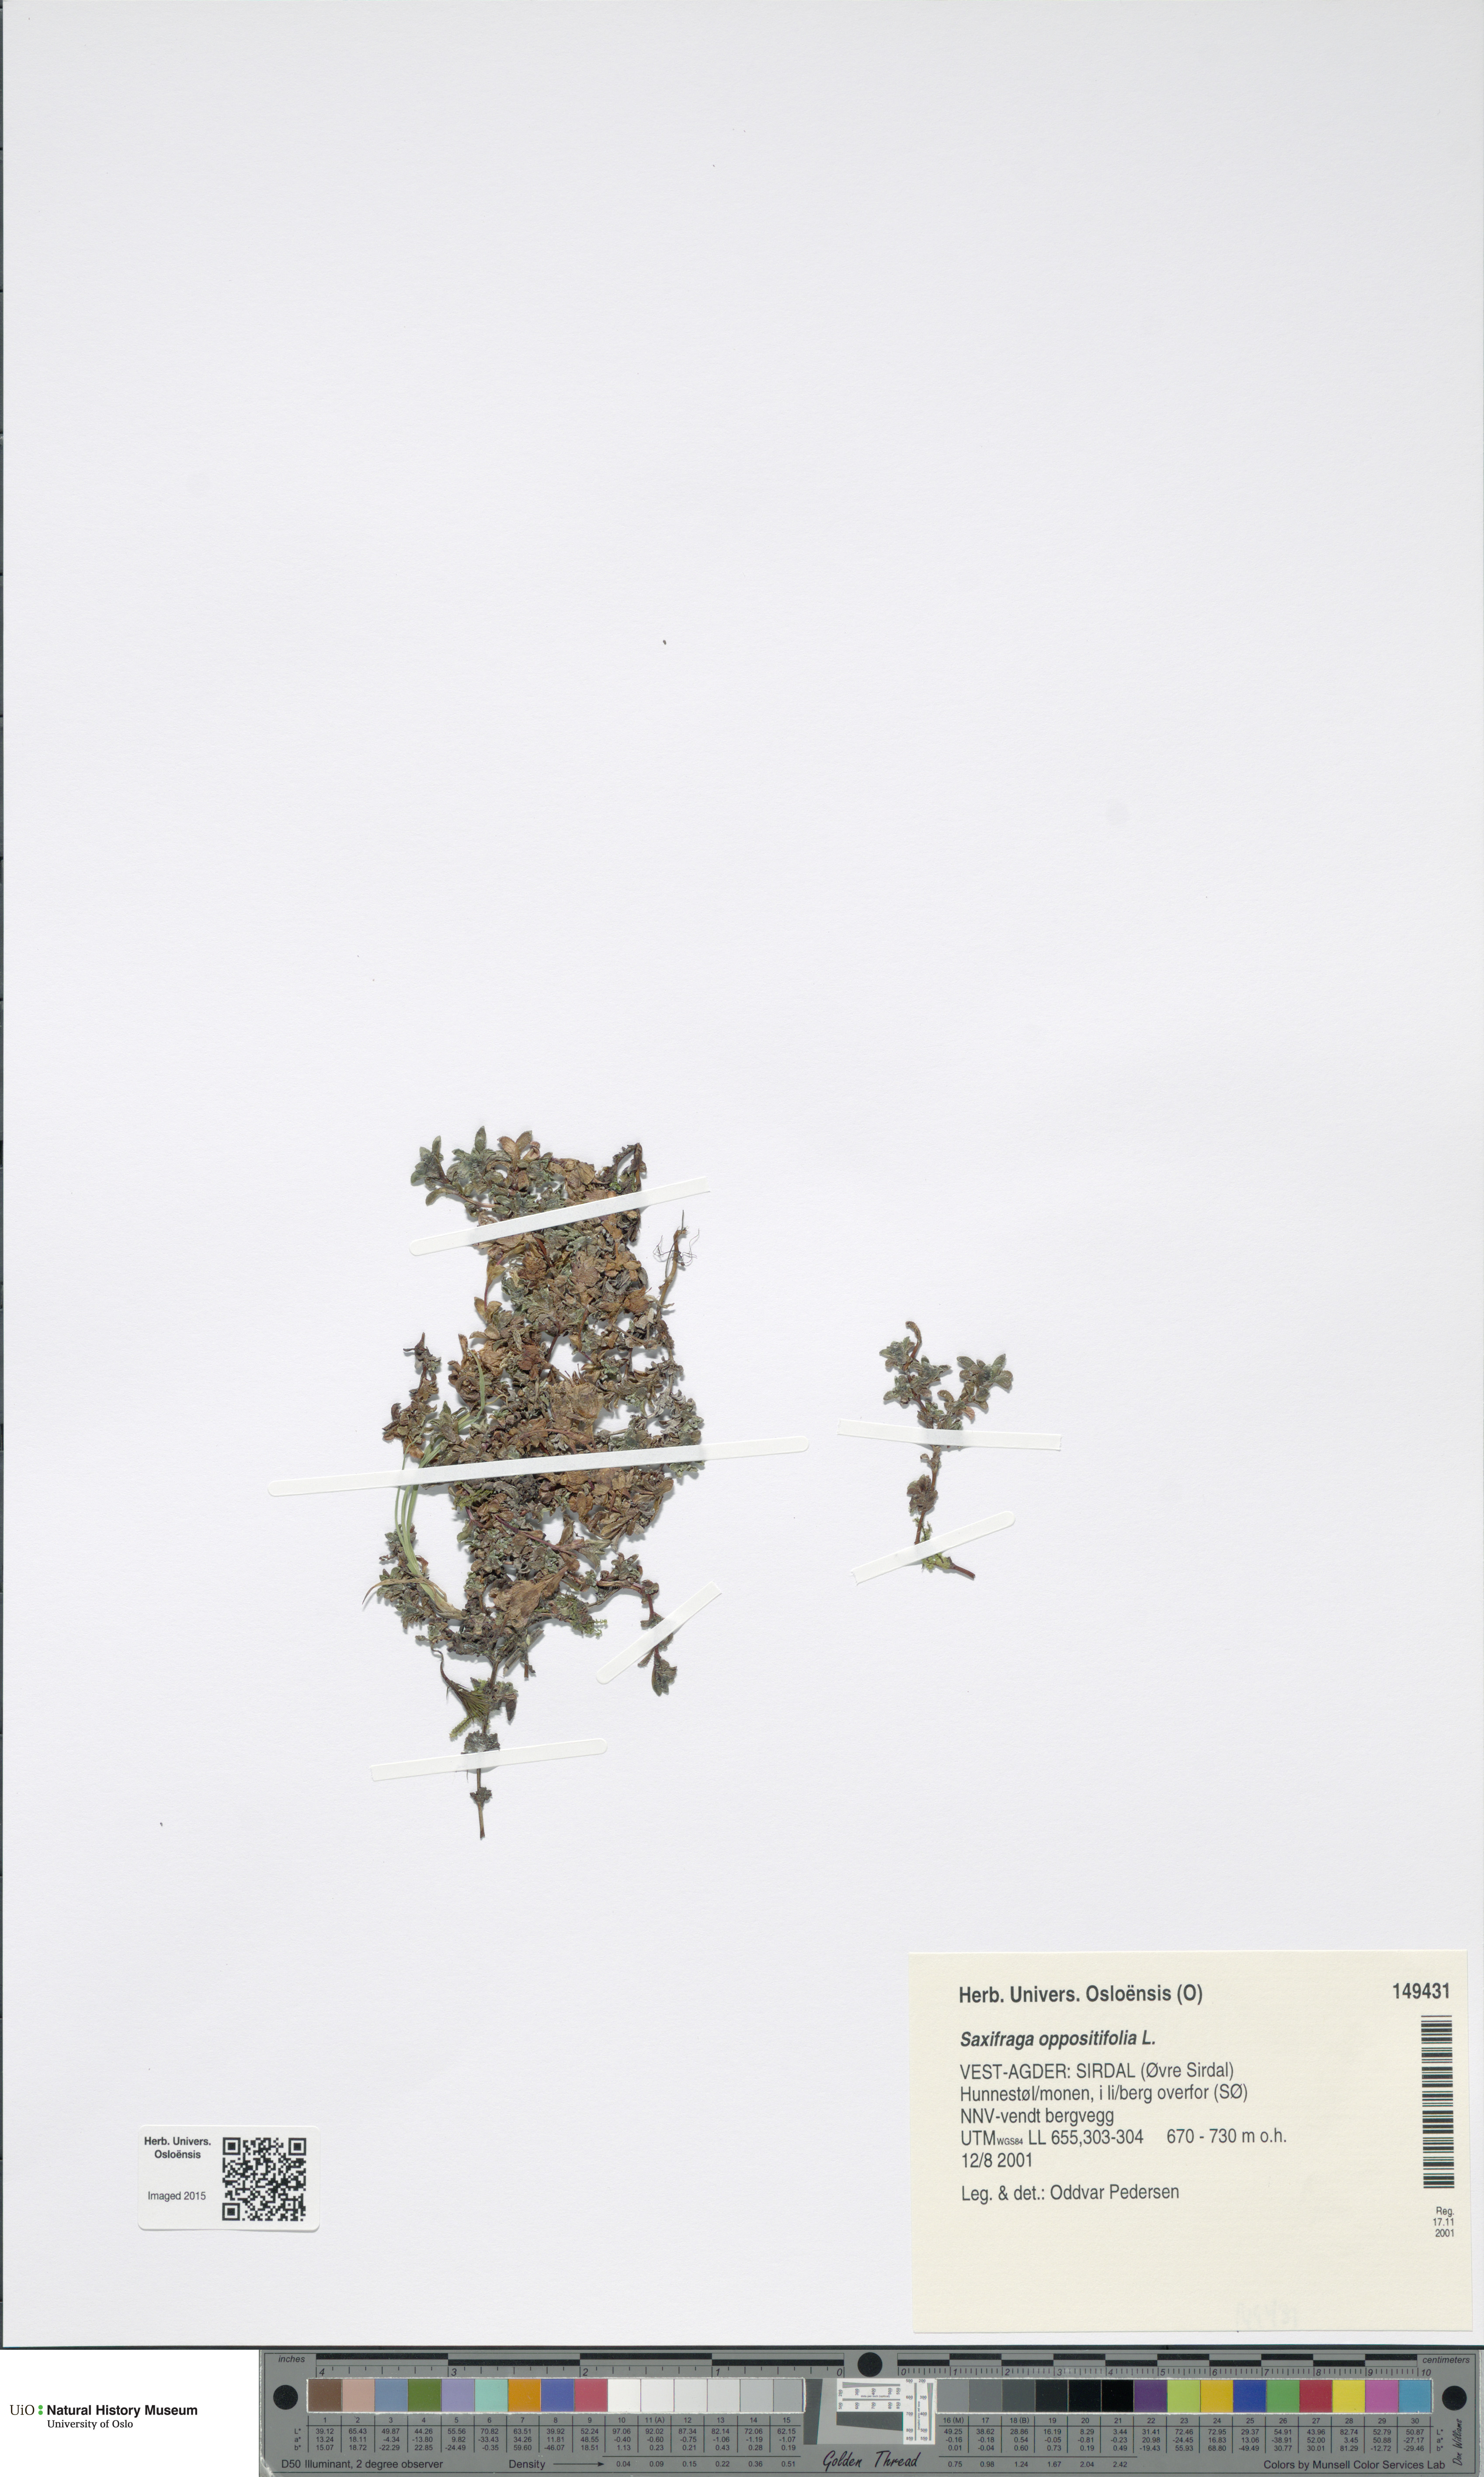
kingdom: Plantae
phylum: Tracheophyta
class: Magnoliopsida
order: Saxifragales
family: Saxifragaceae
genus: Saxifraga
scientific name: Saxifraga oppositifolia
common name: Purple saxifrage
